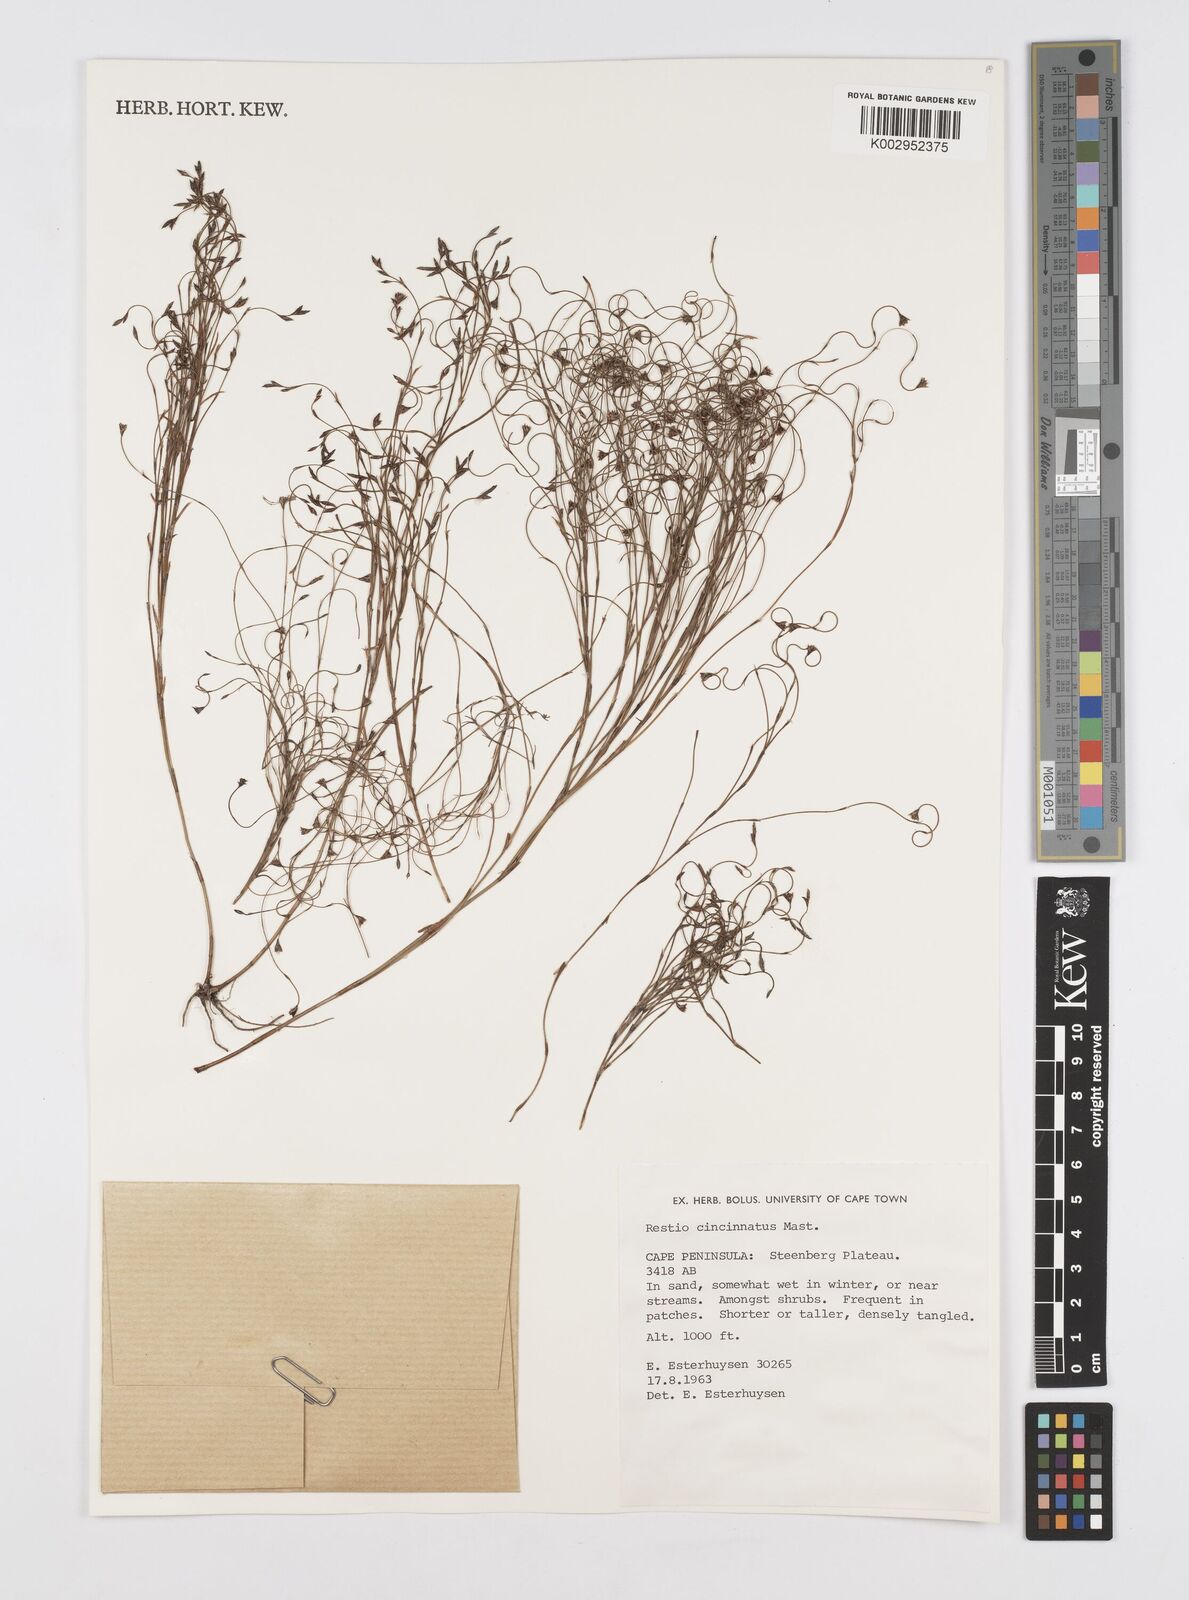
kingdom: Plantae
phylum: Tracheophyta
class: Liliopsida
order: Poales
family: Restionaceae
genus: Restio
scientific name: Restio cincinnatus
